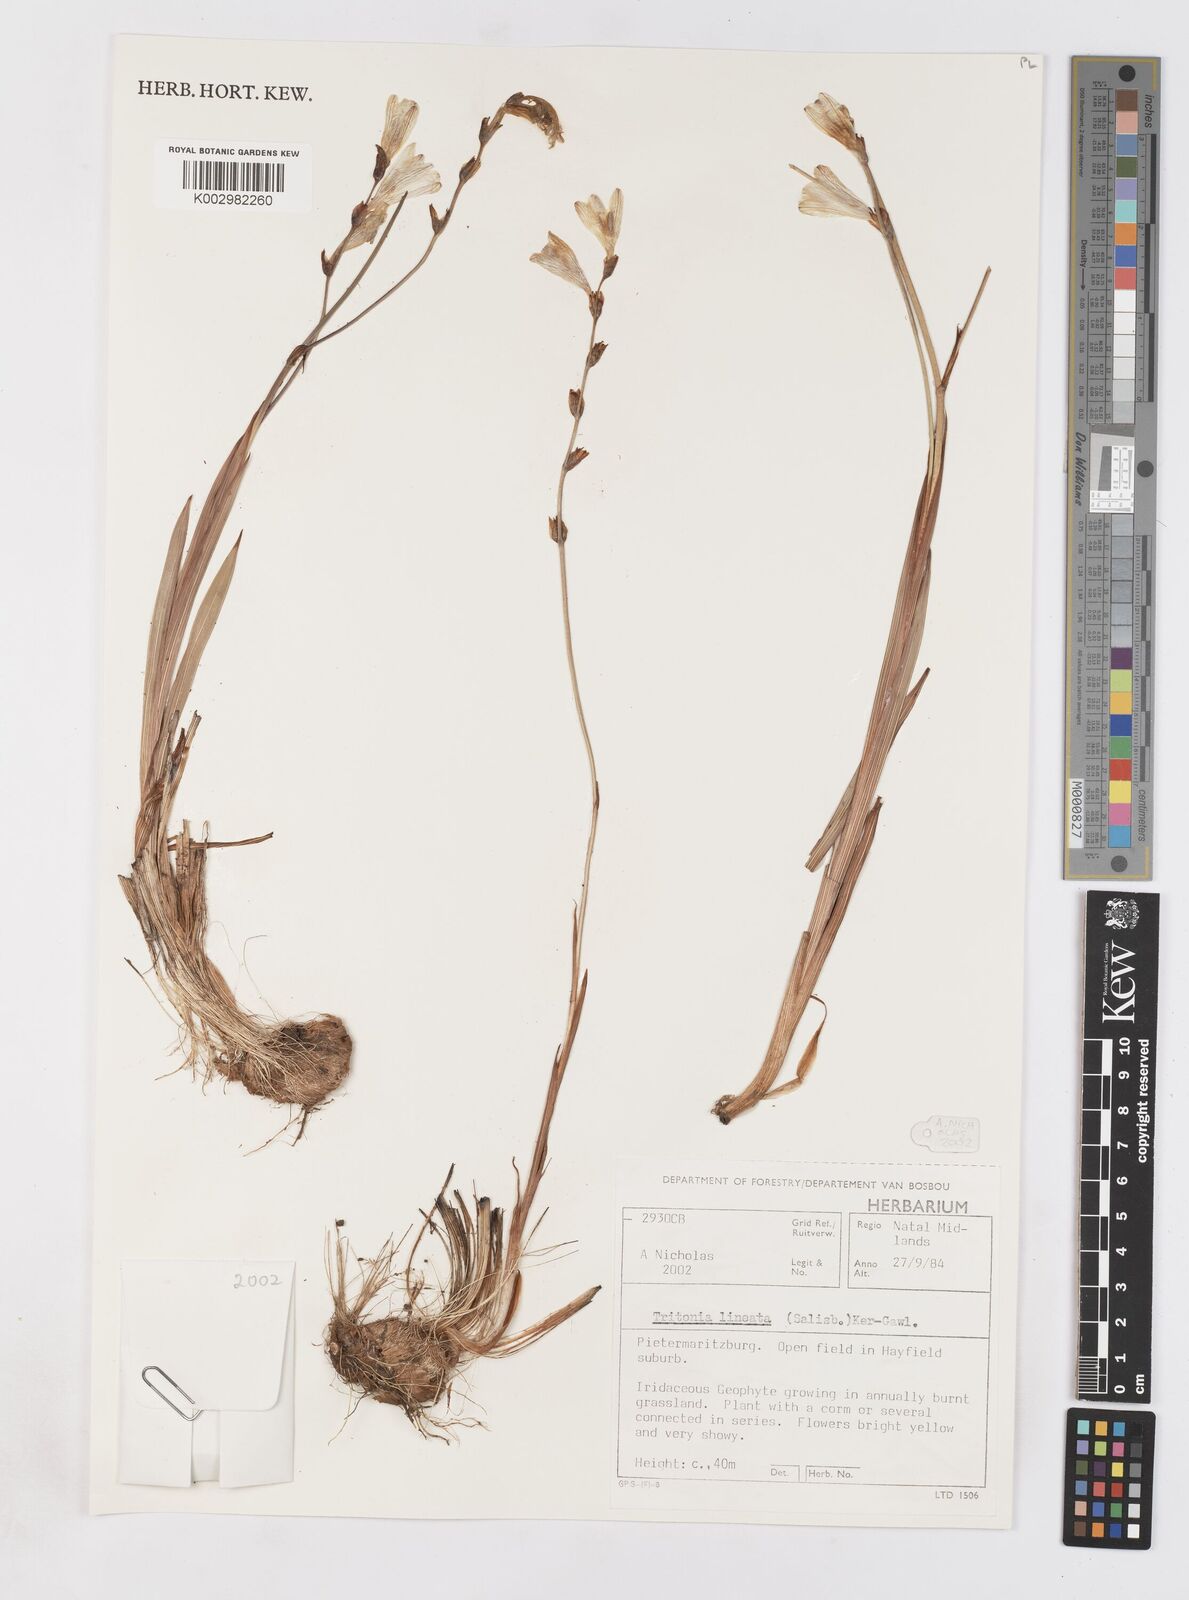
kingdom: Plantae
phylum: Tracheophyta
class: Liliopsida
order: Asparagales
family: Iridaceae
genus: Tritonia
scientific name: Tritonia gladiolaris
